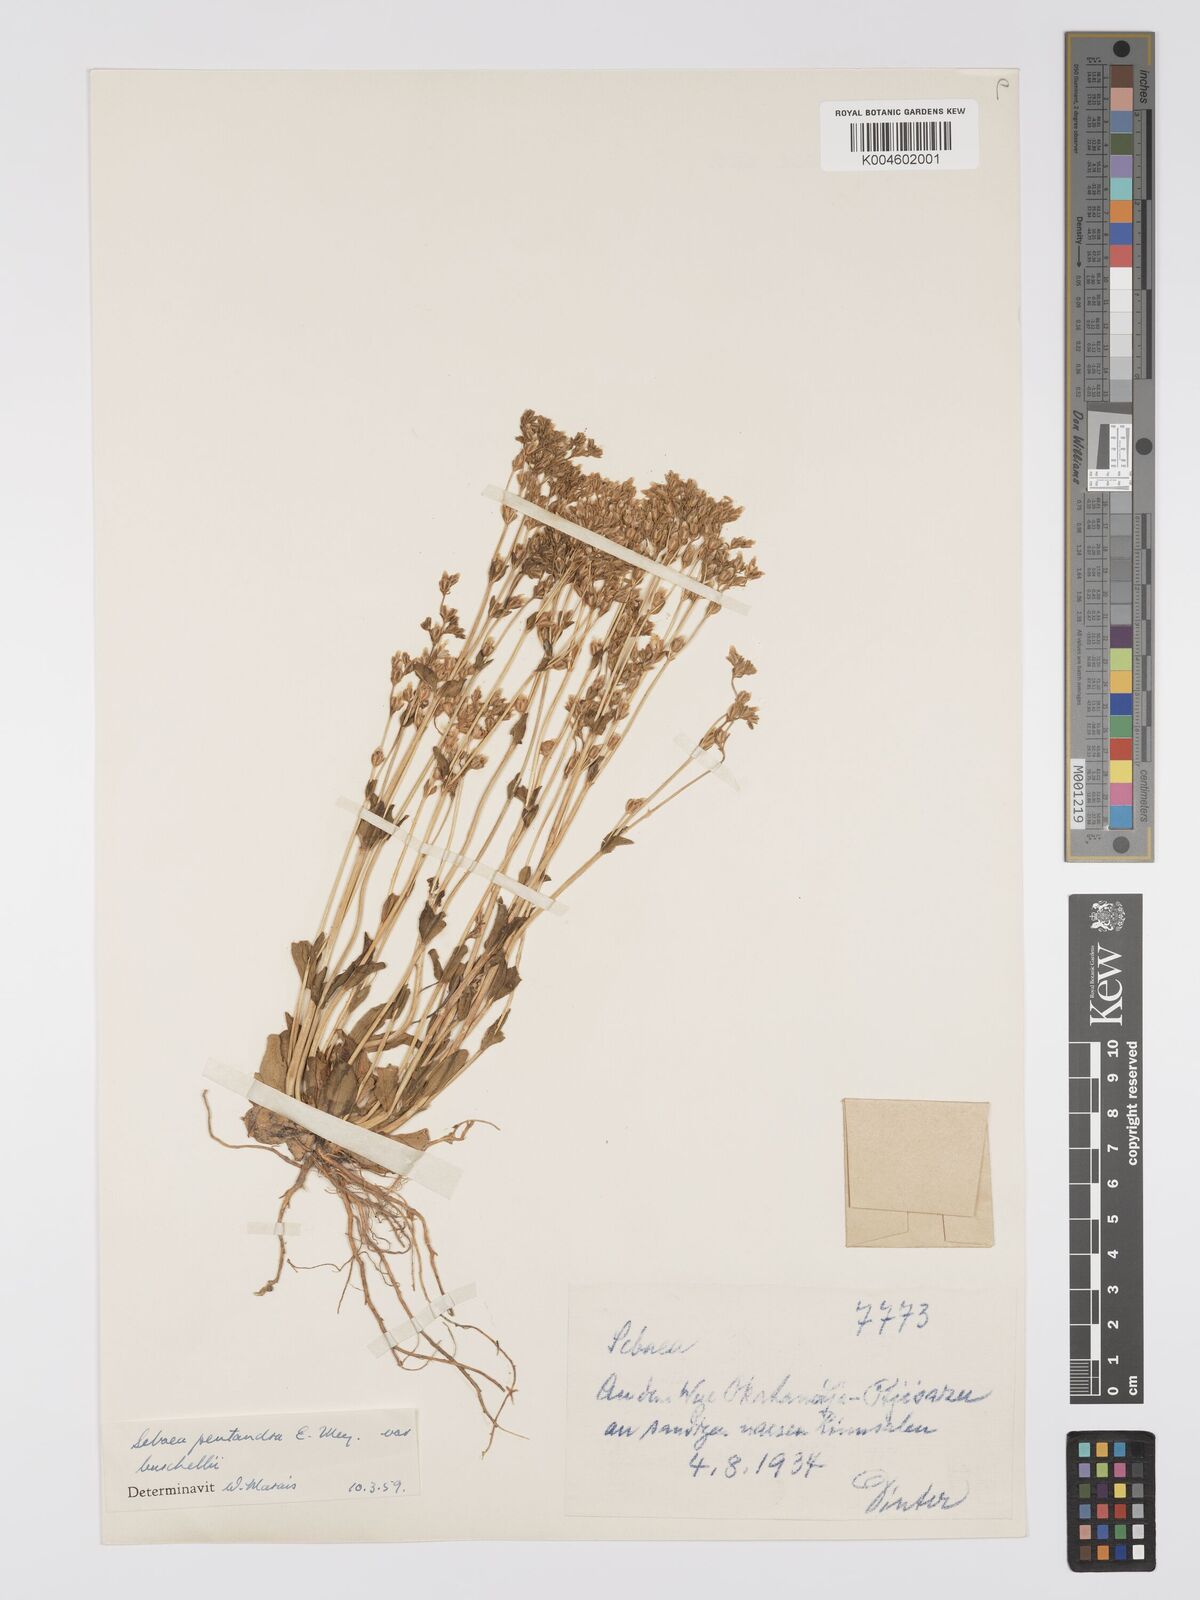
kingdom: Plantae
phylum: Tracheophyta
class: Magnoliopsida
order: Gentianales
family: Gentianaceae
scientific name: Gentianaceae
